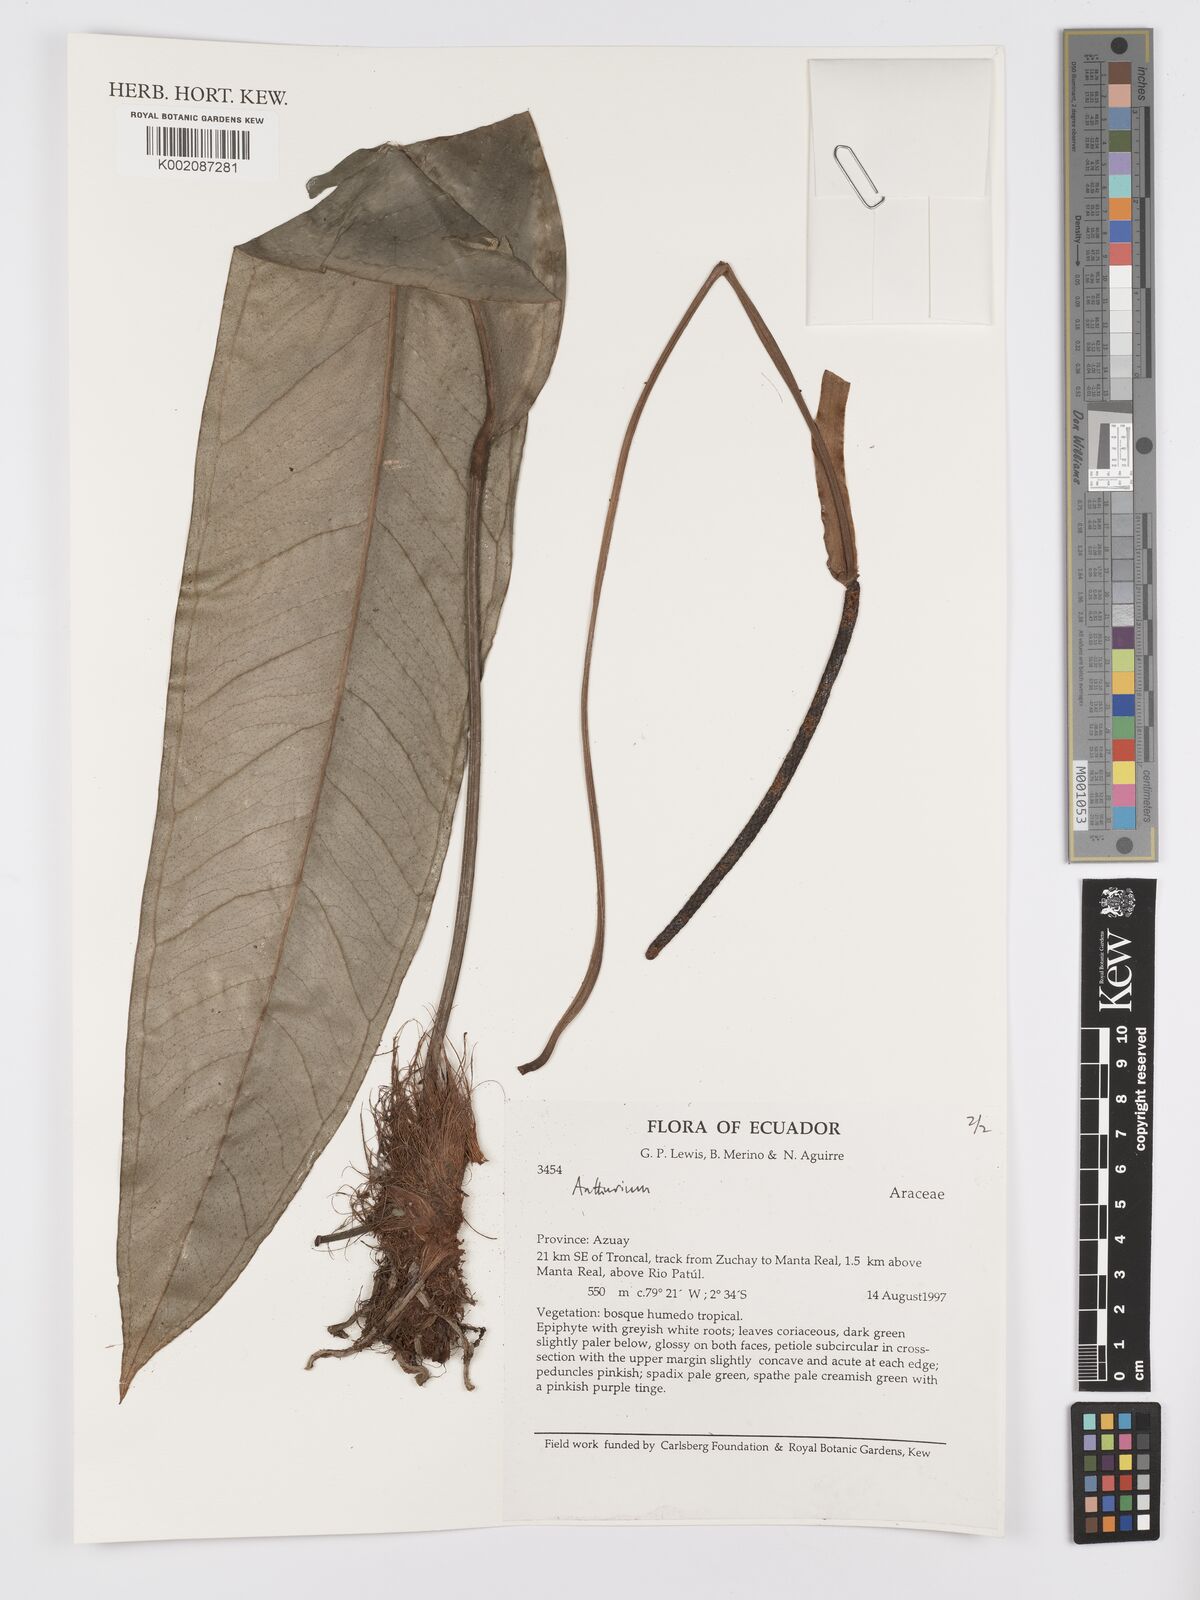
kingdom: Plantae
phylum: Tracheophyta
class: Liliopsida
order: Alismatales
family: Araceae
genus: Anthurium
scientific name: Anthurium
